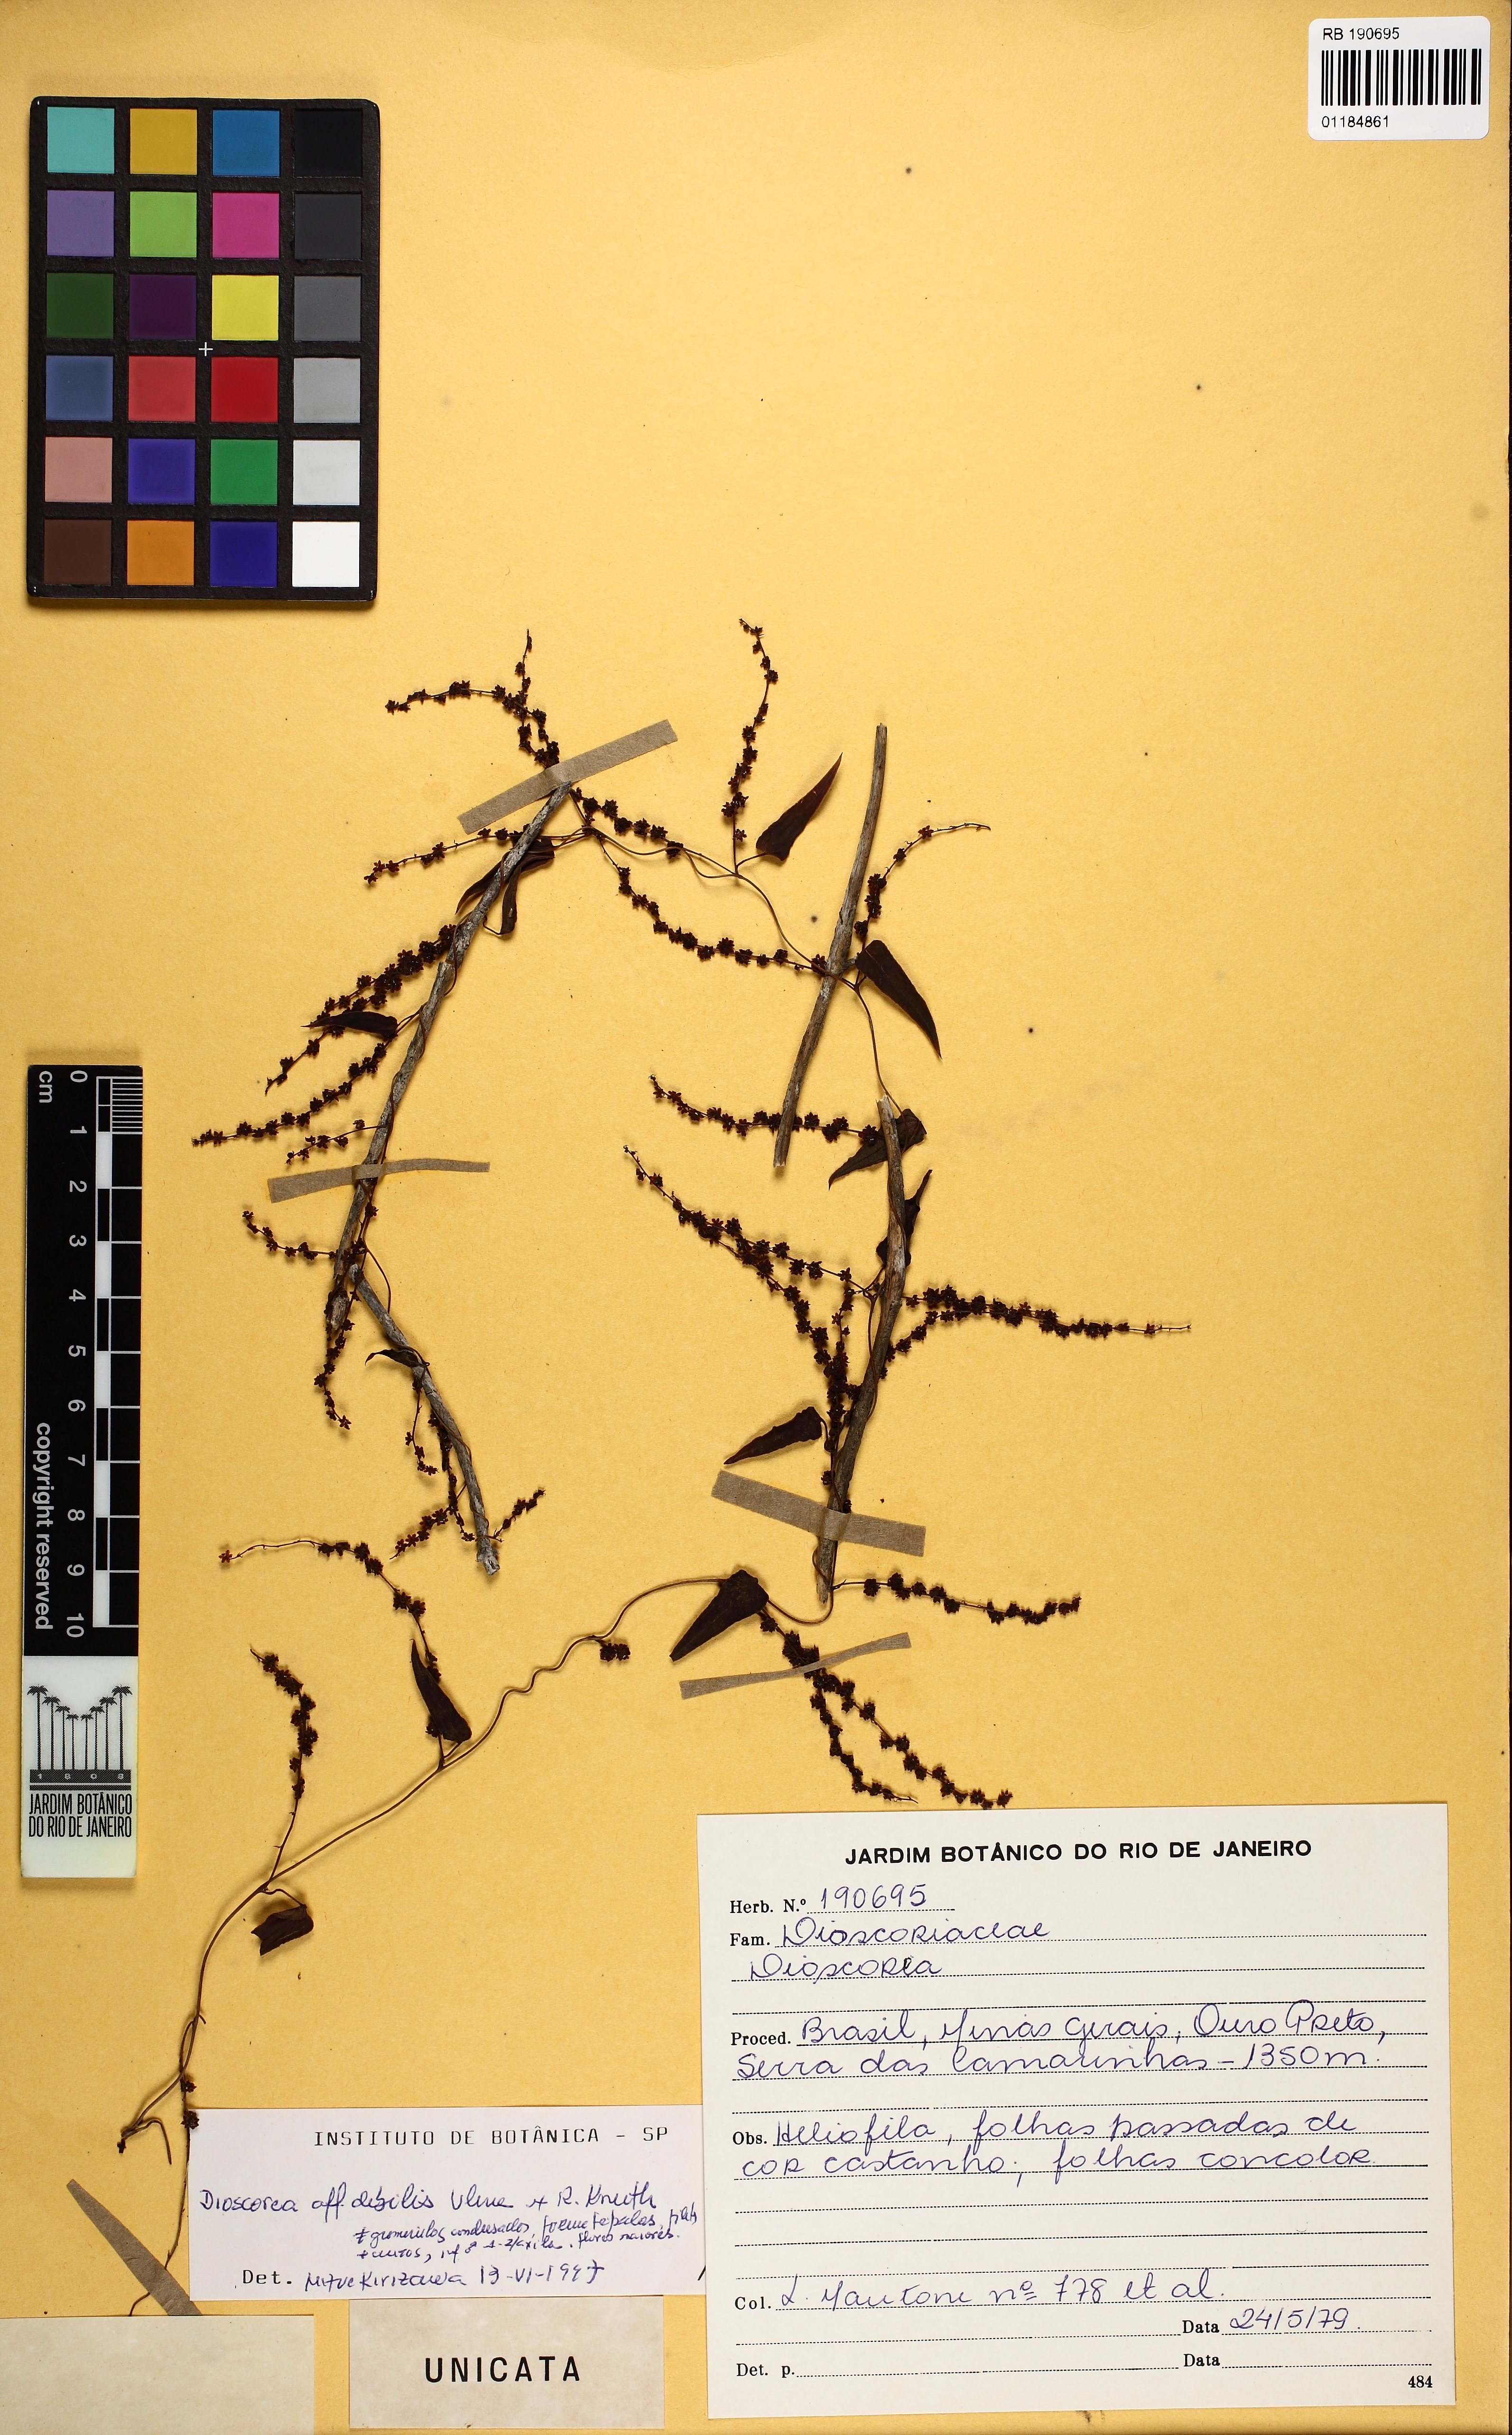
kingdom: Plantae
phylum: Tracheophyta
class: Liliopsida
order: Dioscoreales
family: Dioscoreaceae
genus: Dioscorea
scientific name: Dioscorea debilis
